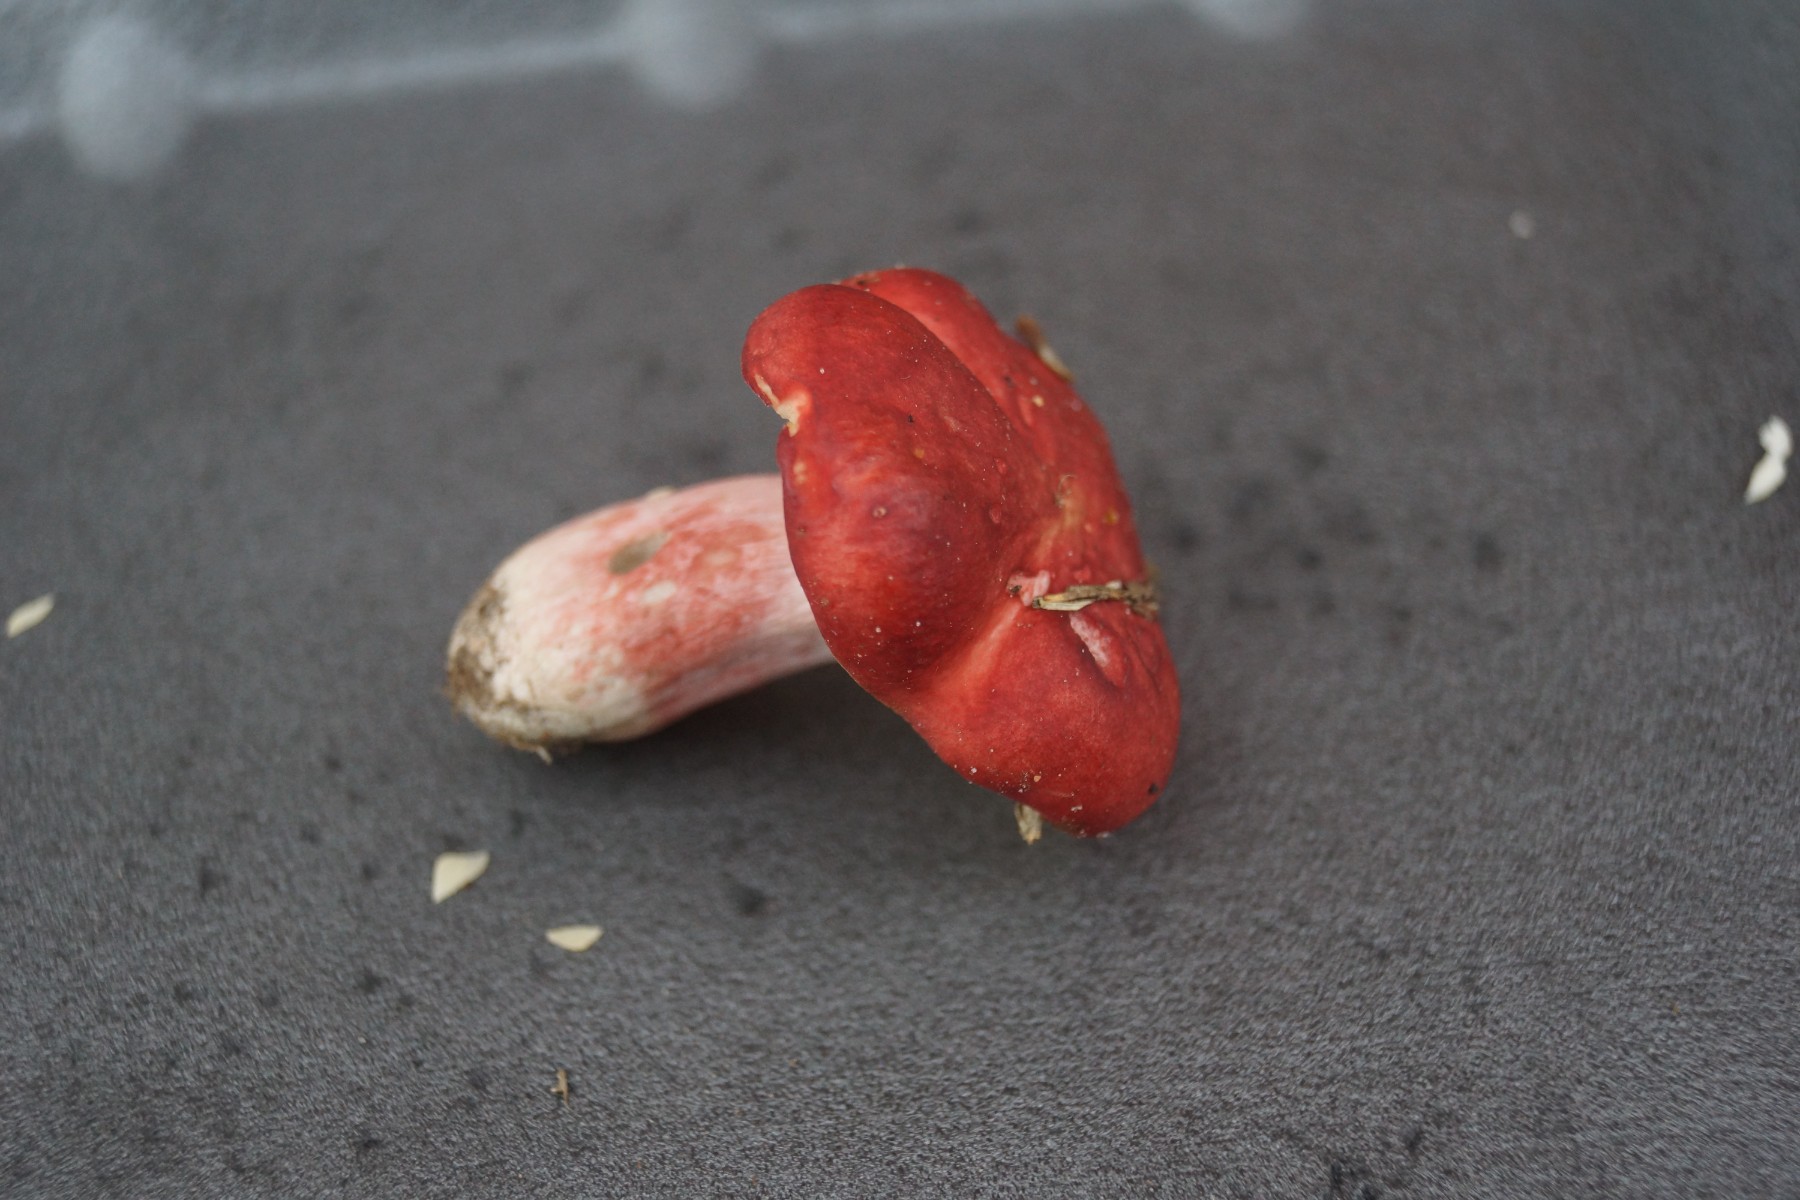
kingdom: Fungi
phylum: Basidiomycota
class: Agaricomycetes
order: Russulales
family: Russulaceae
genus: Russula
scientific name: Russula sanguinea
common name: blodrød skørhat
